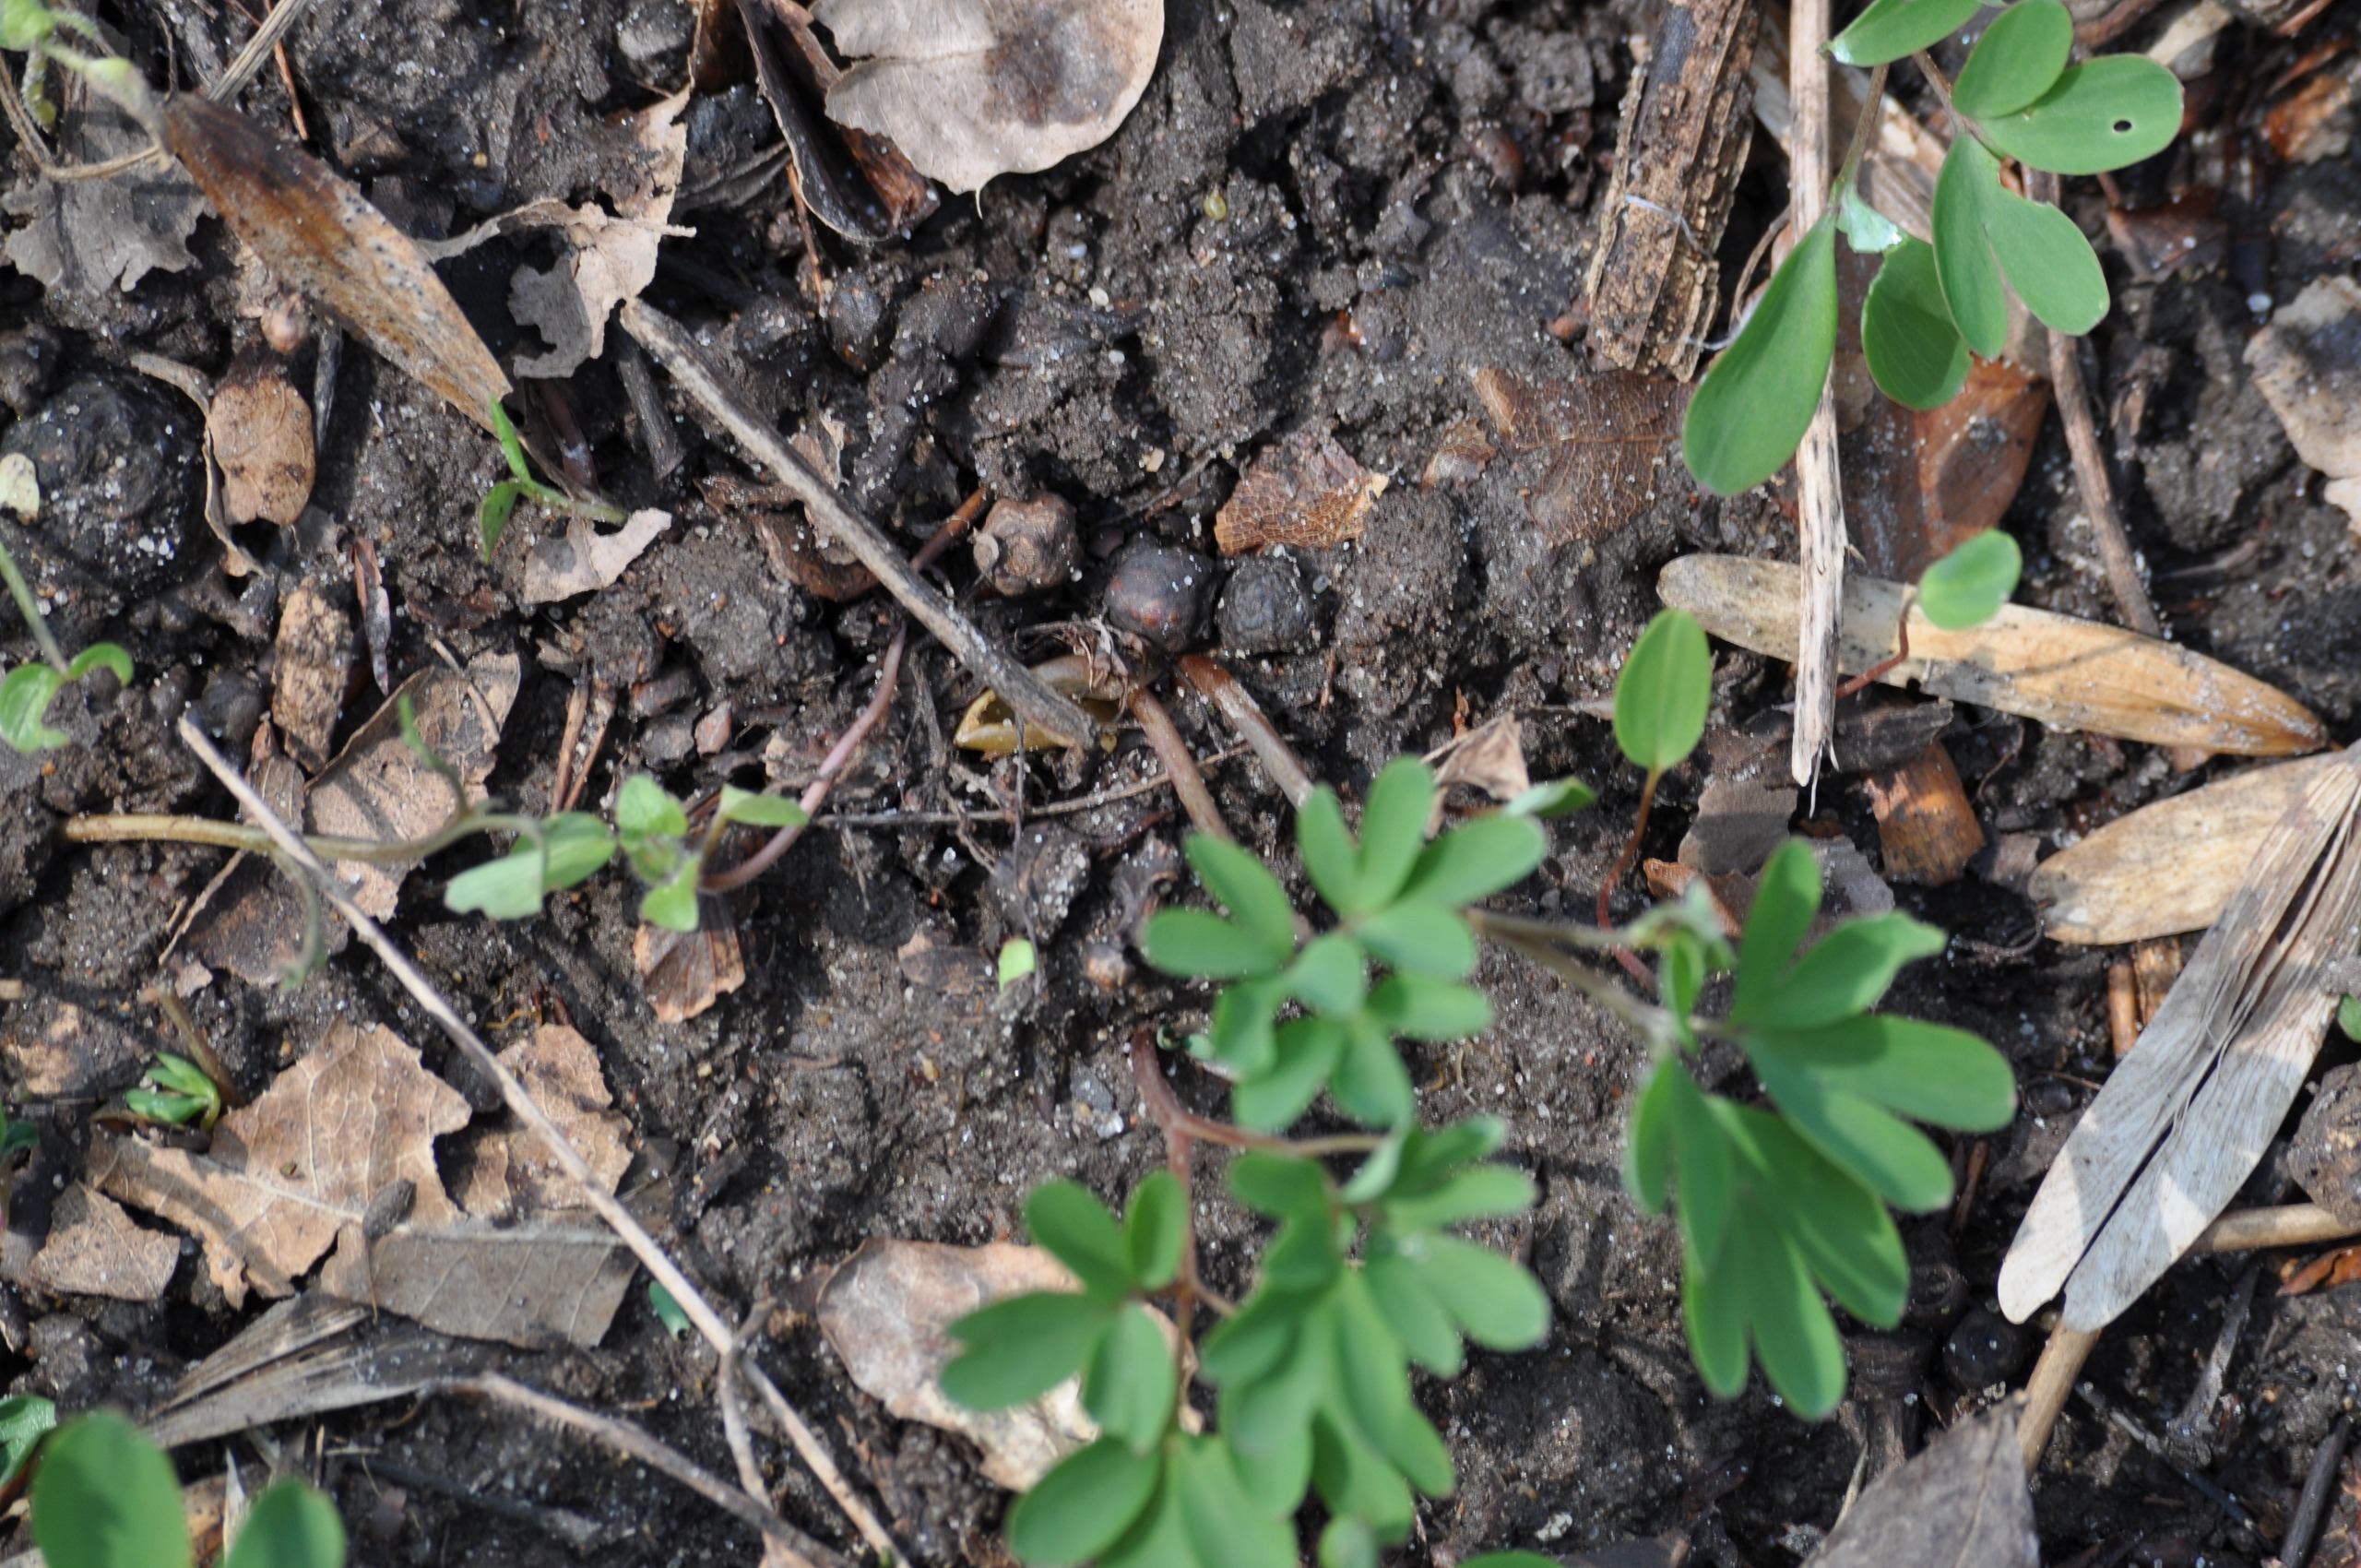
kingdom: Plantae
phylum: Tracheophyta
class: Magnoliopsida
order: Ranunculales
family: Papaveraceae
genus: Corydalis
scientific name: Corydalis intermedia
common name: Liden lærkespore
